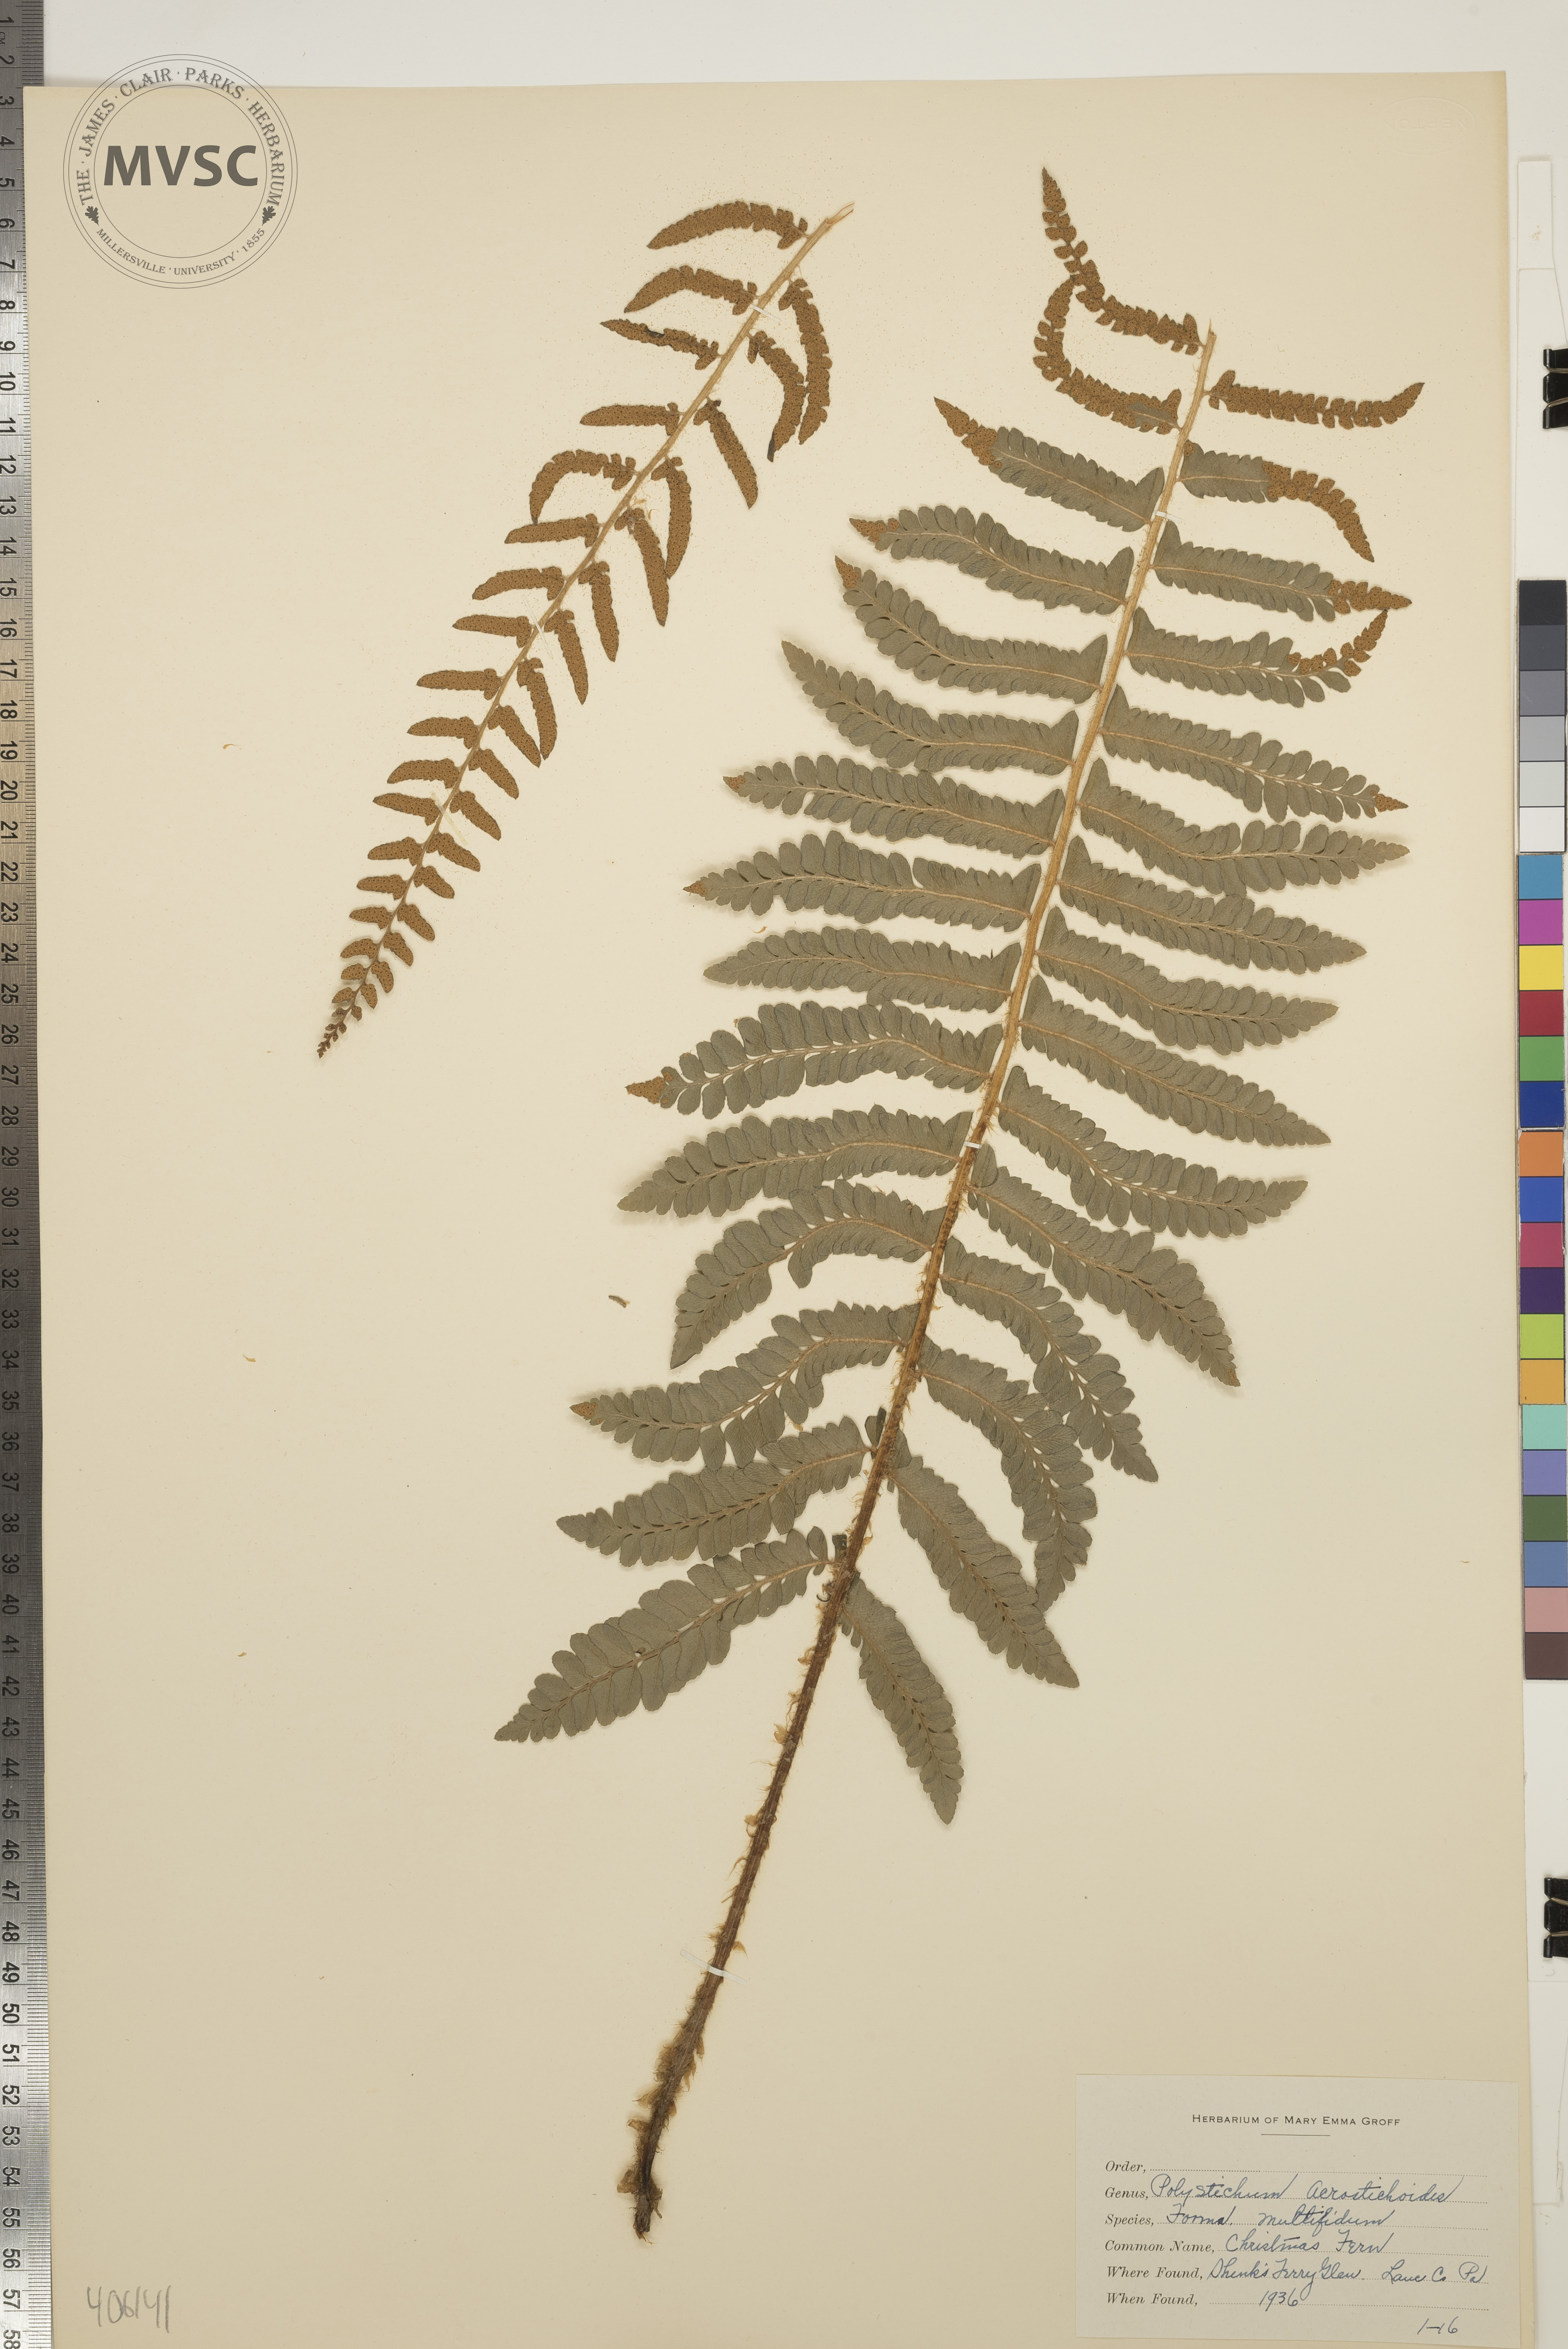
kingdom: Plantae
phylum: Tracheophyta
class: Polypodiopsida
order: Polypodiales
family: Dryopteridaceae
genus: Polystichum
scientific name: Polystichum acrostichoides
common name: Christmas Fern
